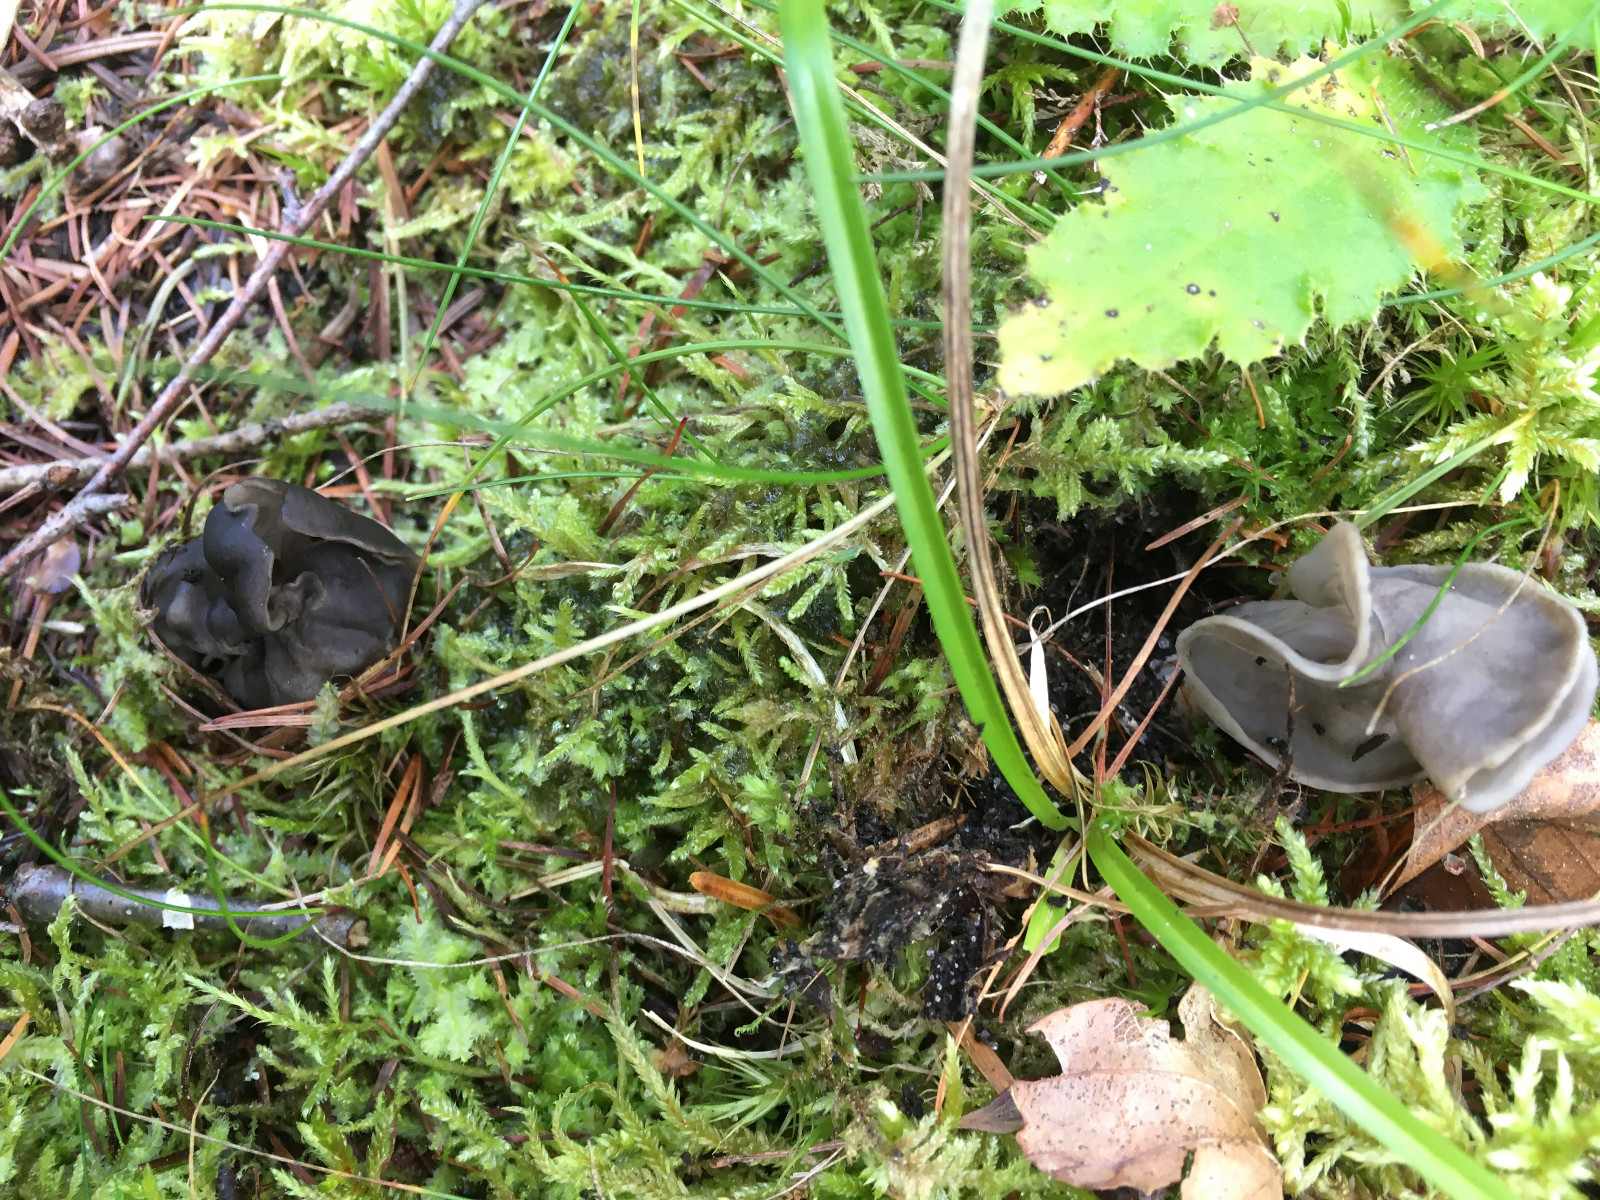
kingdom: Fungi
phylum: Ascomycota
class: Pezizomycetes
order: Pezizales
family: Helvellaceae
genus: Helvella
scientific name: Helvella lacunosa
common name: grubet foldhat
